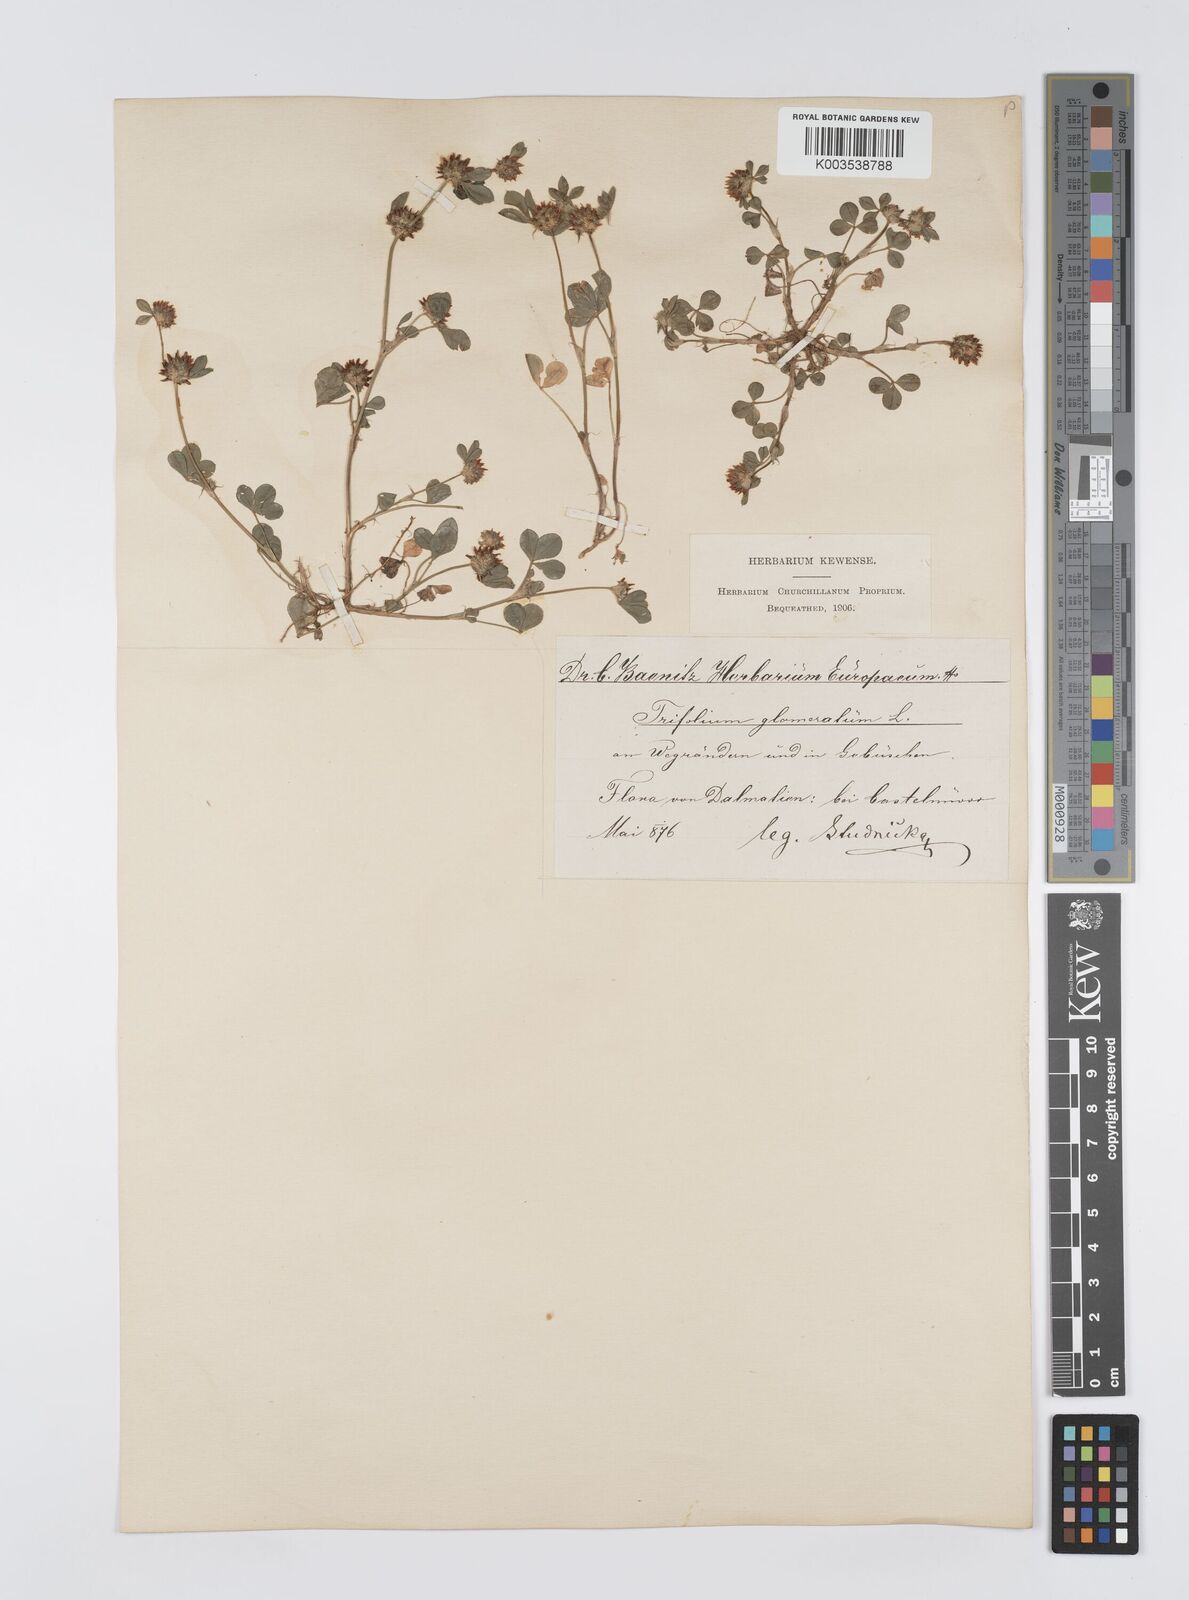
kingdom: Plantae
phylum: Tracheophyta
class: Magnoliopsida
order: Fabales
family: Fabaceae
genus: Trifolium
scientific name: Trifolium glomeratum
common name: Clustered clover
